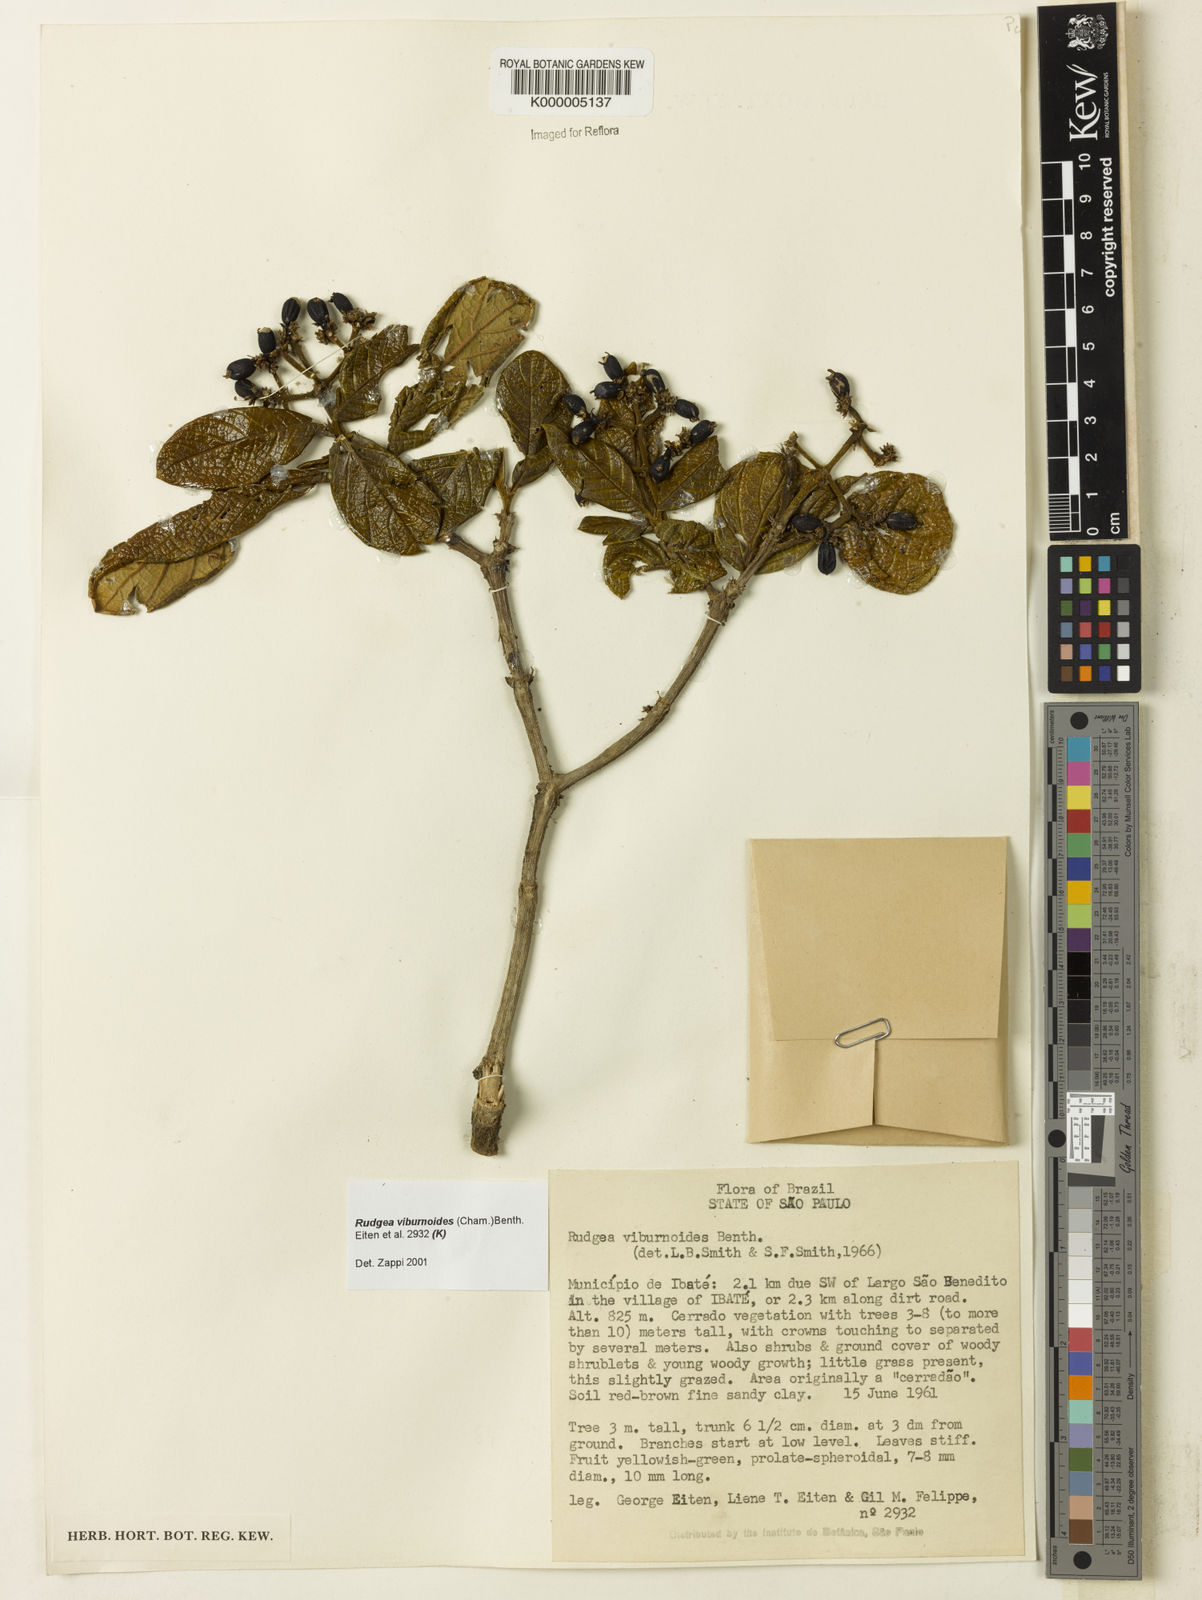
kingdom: Plantae
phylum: Tracheophyta
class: Magnoliopsida
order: Gentianales
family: Rubiaceae
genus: Rudgea
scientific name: Rudgea viburnoides
